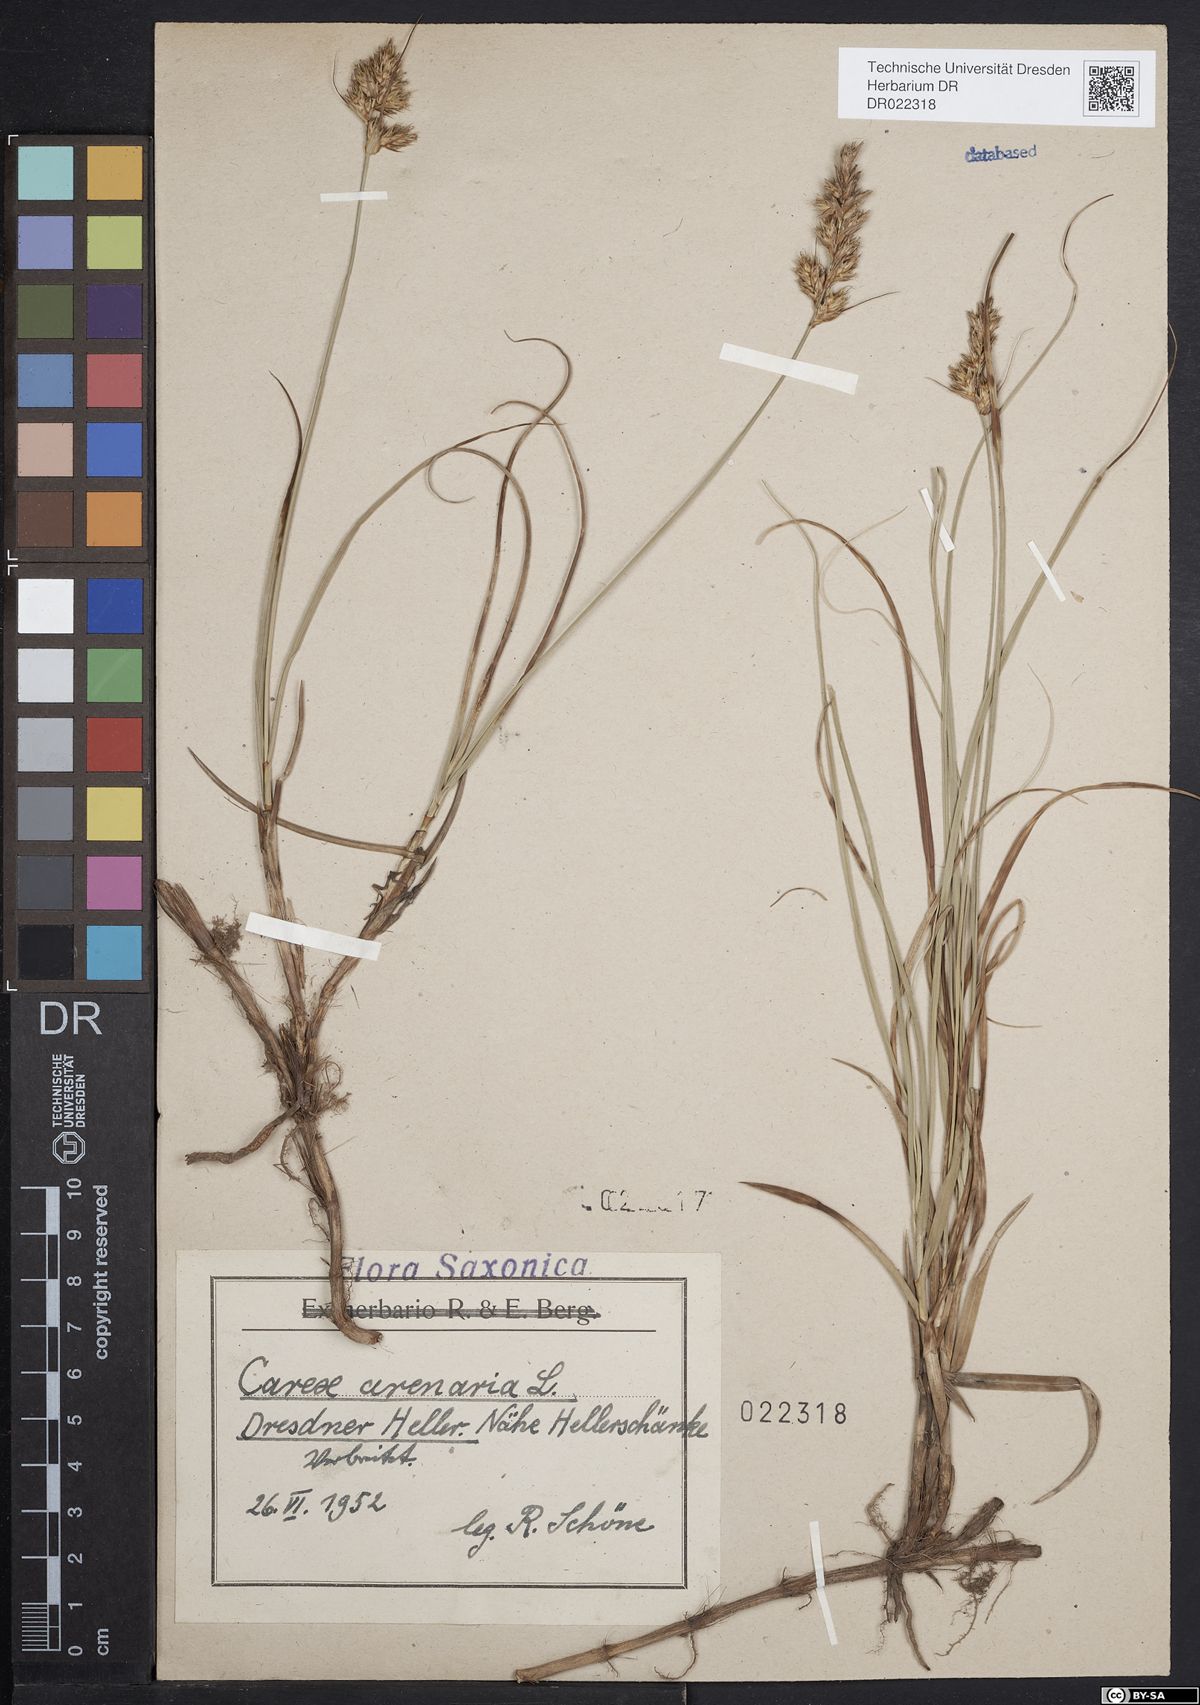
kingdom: Plantae
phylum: Tracheophyta
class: Liliopsida
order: Poales
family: Cyperaceae
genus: Carex
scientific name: Carex arenaria
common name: Sand sedge
